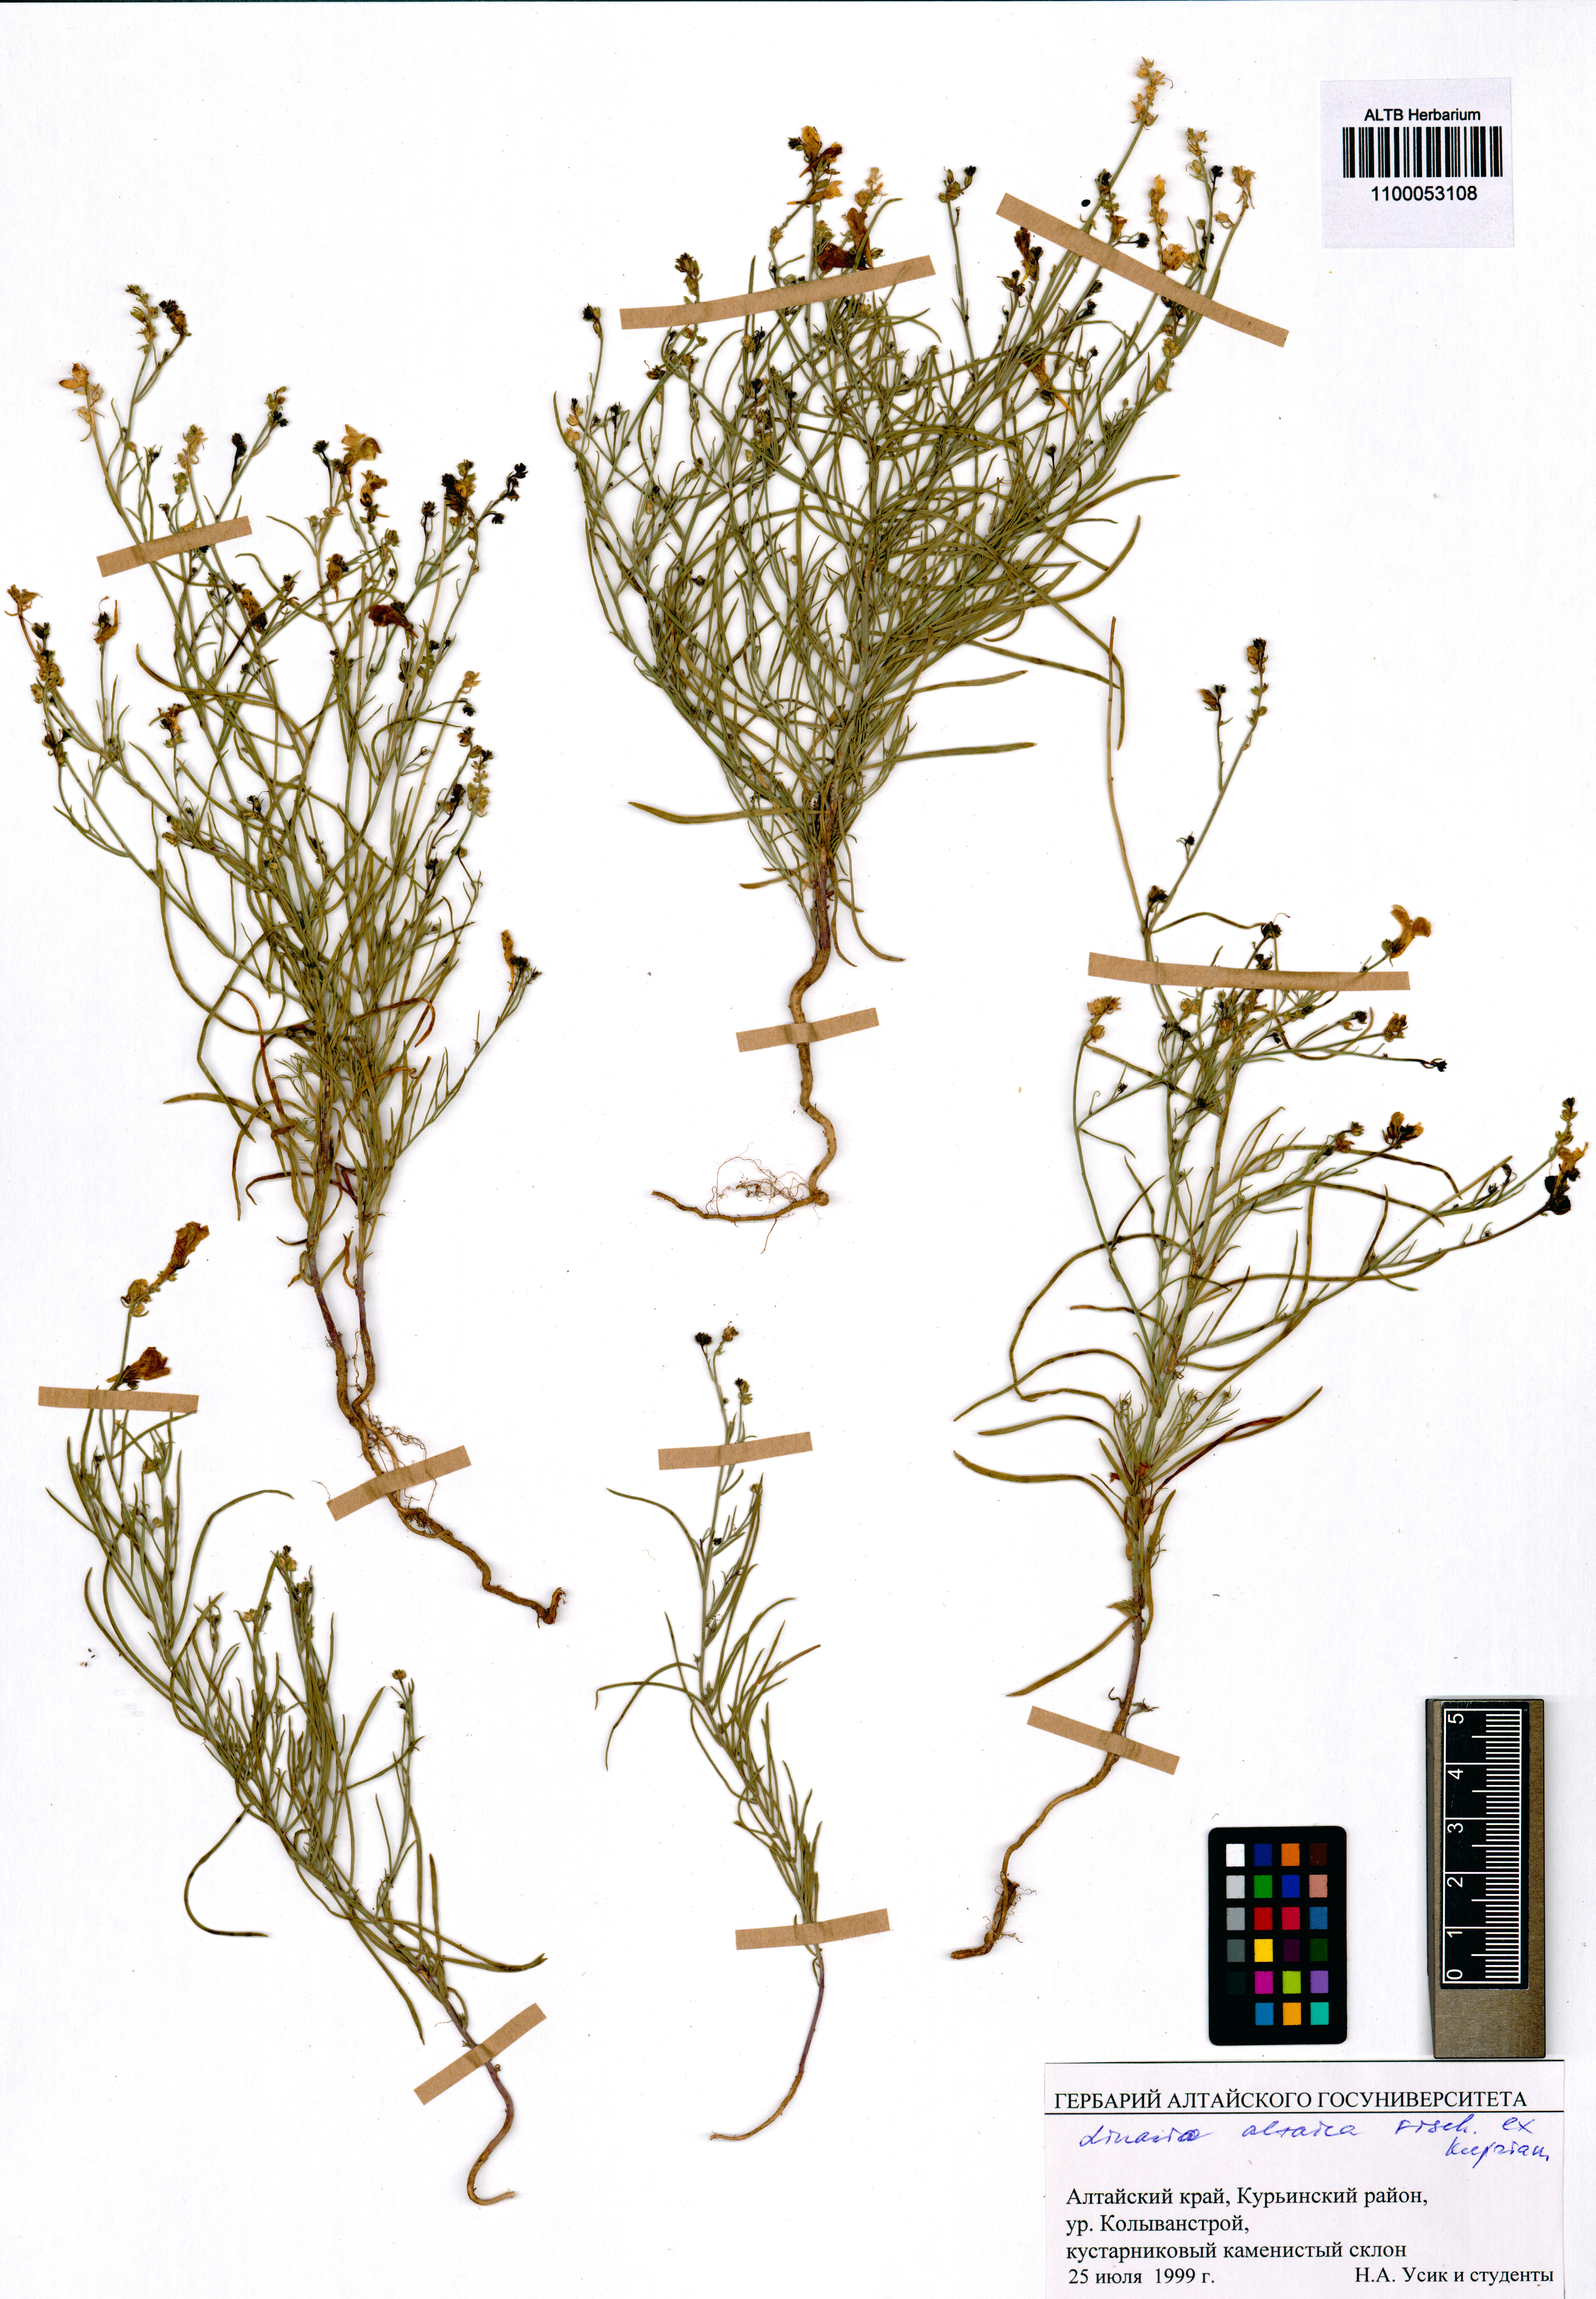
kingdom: Plantae
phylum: Tracheophyta
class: Magnoliopsida
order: Lamiales
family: Plantaginaceae
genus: Linaria
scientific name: Linaria altaica
